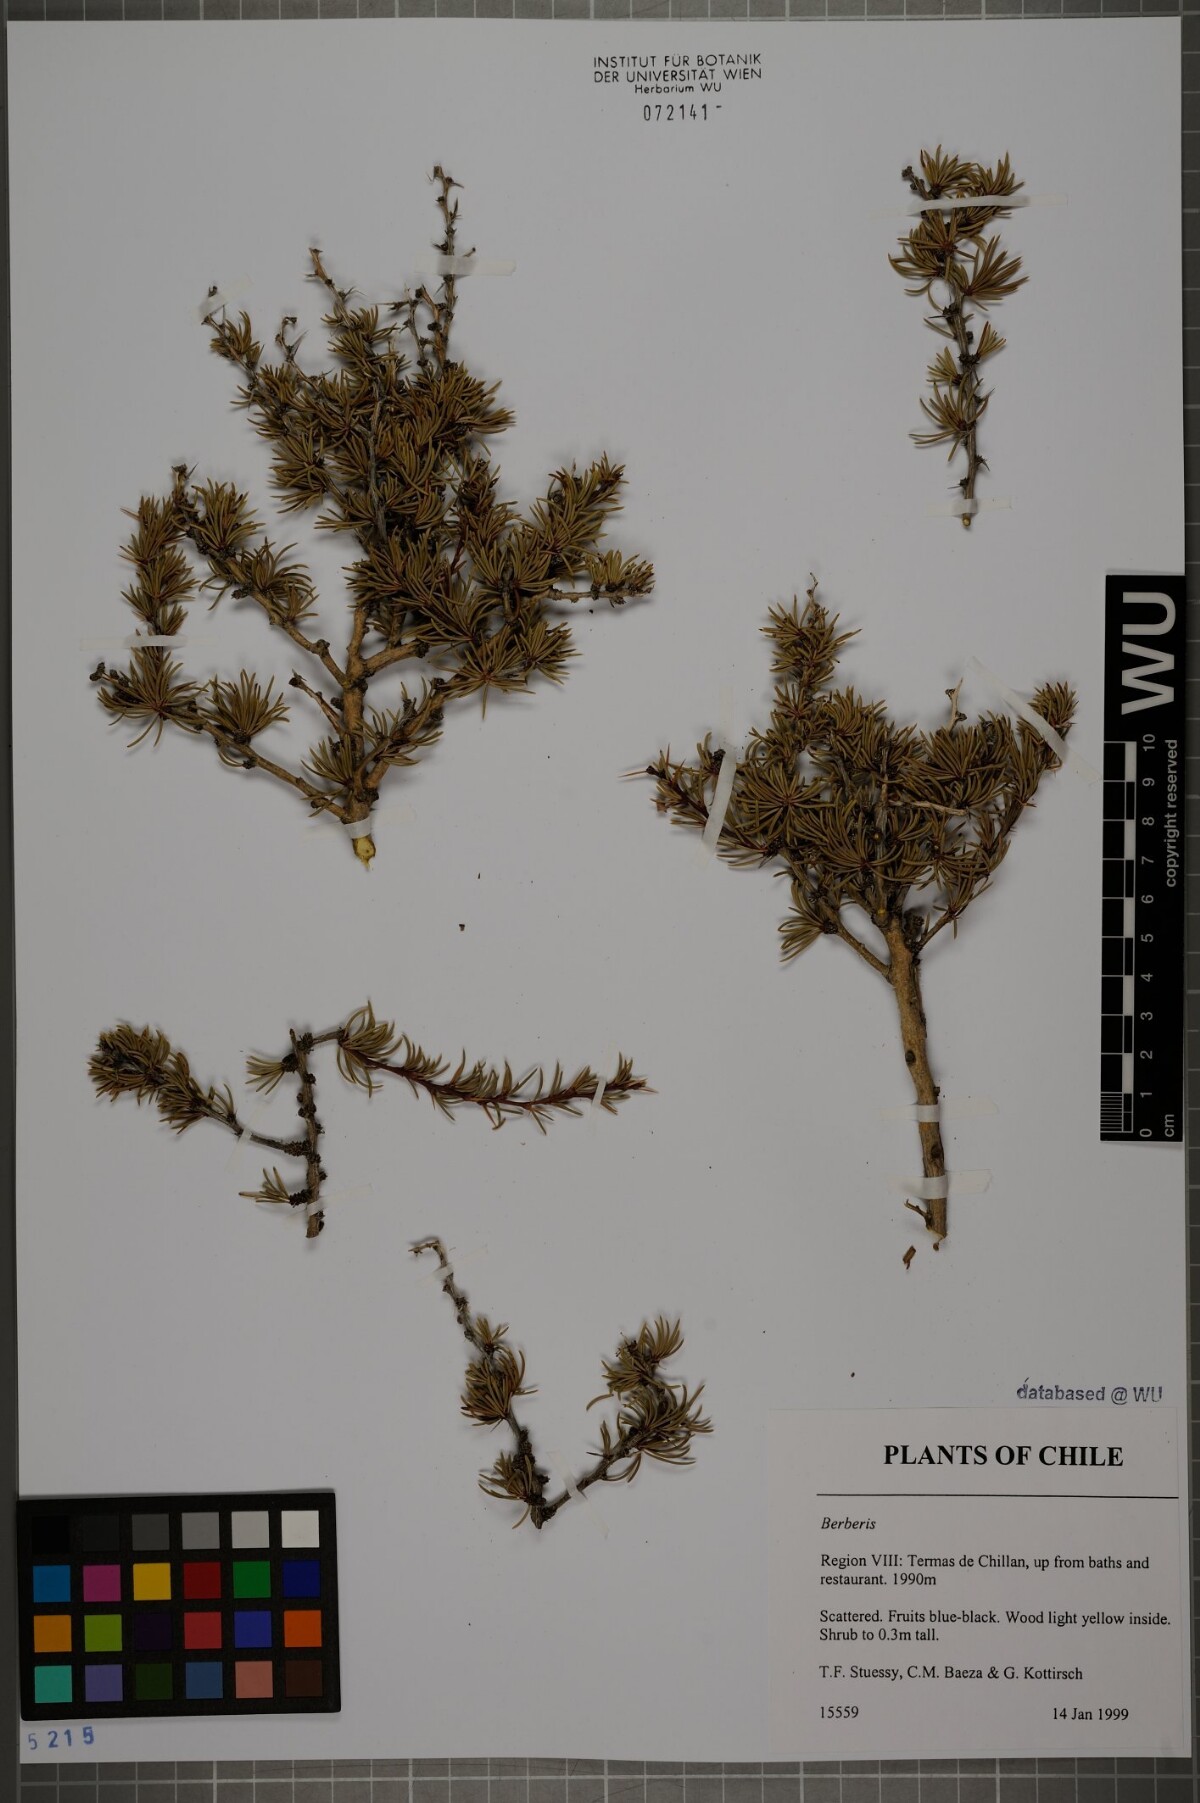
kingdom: Plantae
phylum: Tracheophyta
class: Magnoliopsida
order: Ranunculales
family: Berberidaceae
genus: Berberis
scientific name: Berberis
